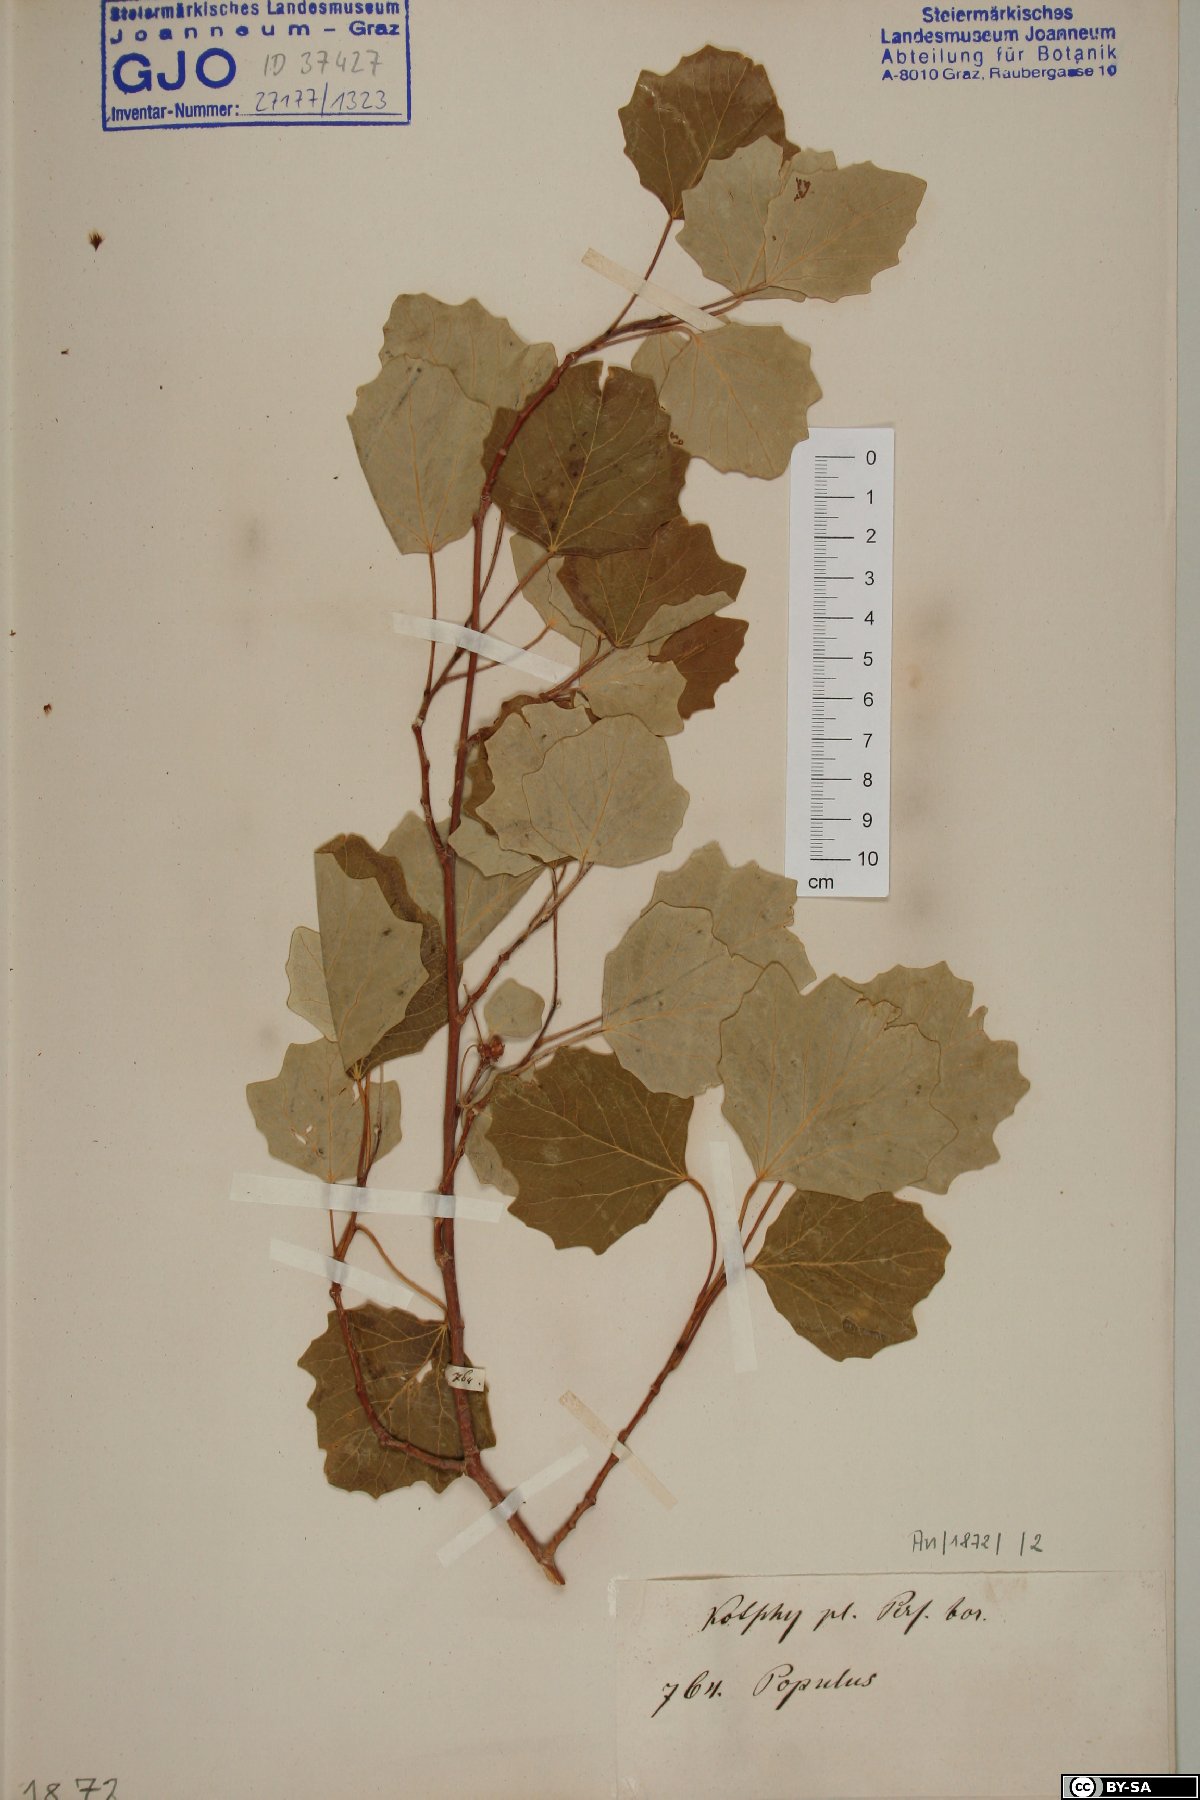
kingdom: Plantae
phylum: Tracheophyta
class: Magnoliopsida
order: Malpighiales
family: Salicaceae
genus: Populus
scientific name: Populus
